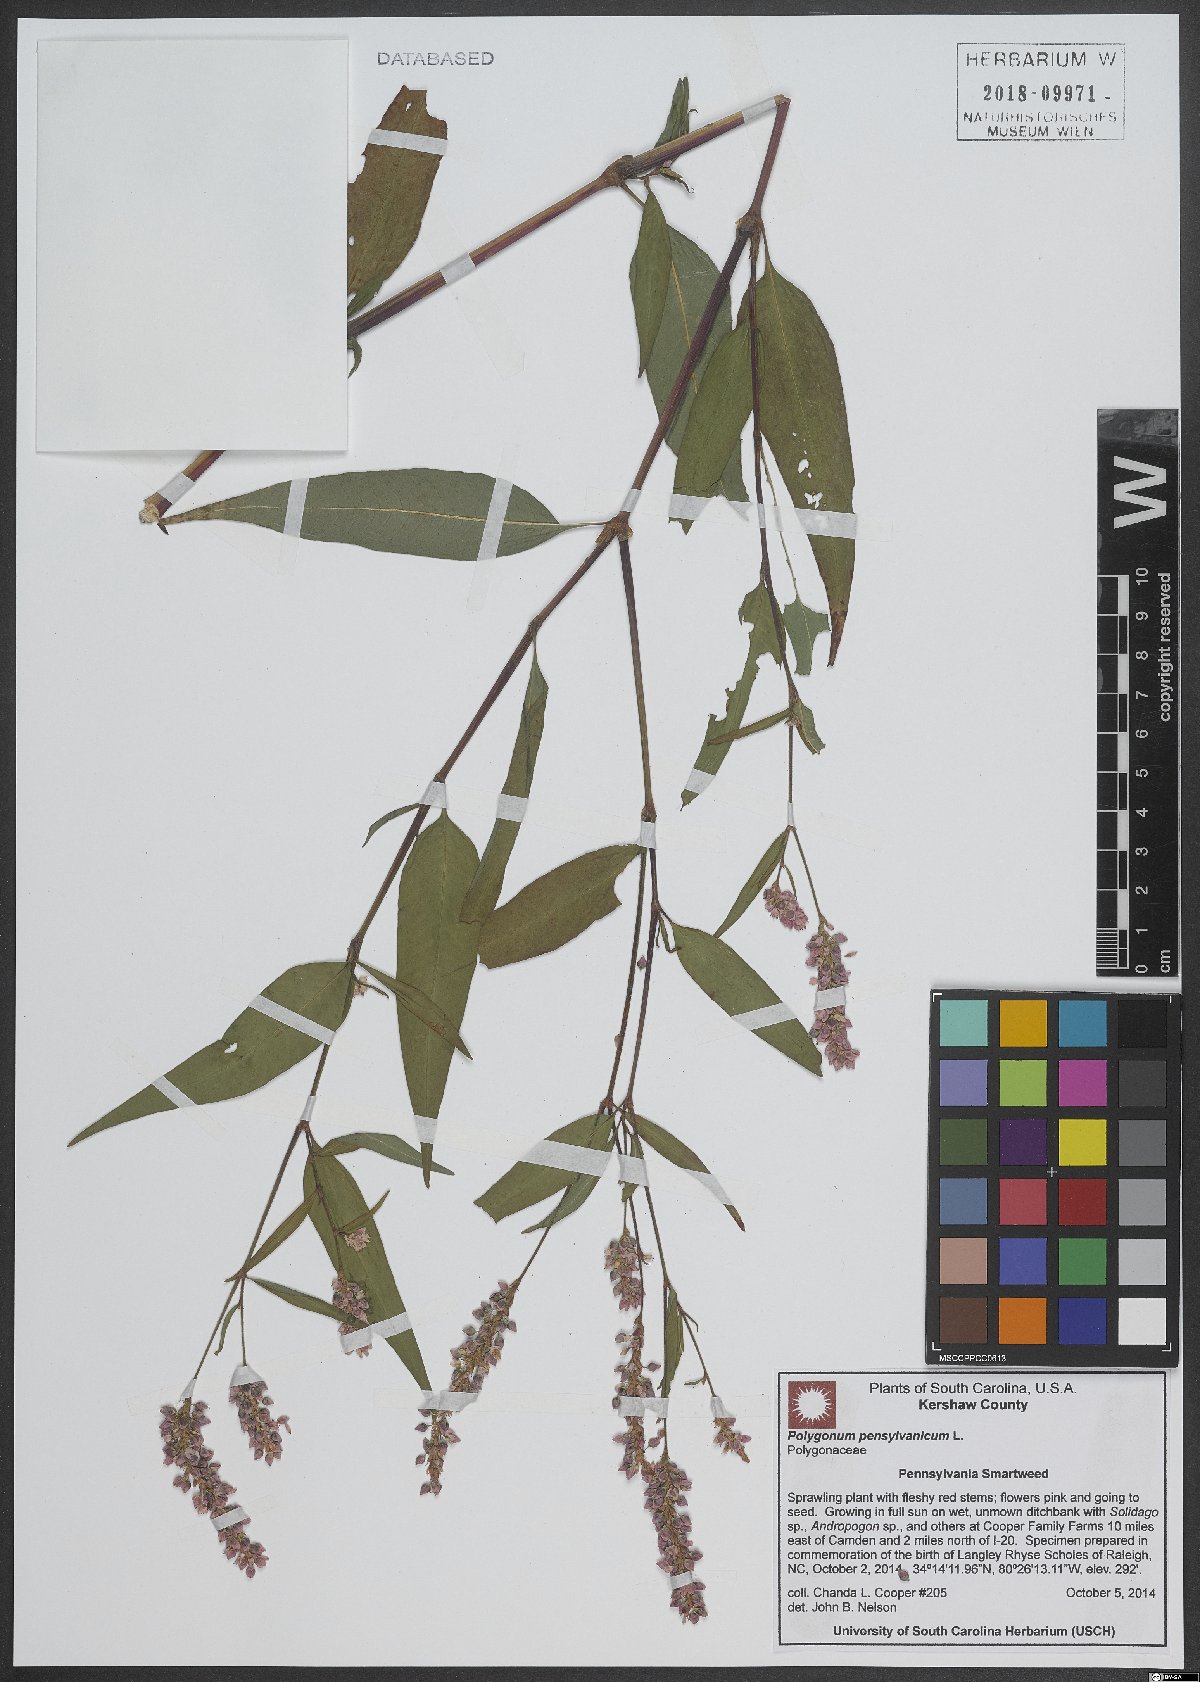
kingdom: Plantae
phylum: Tracheophyta
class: Magnoliopsida
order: Caryophyllales
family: Polygonaceae
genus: Persicaria
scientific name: Persicaria pensylvanica
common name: Pinkweed
